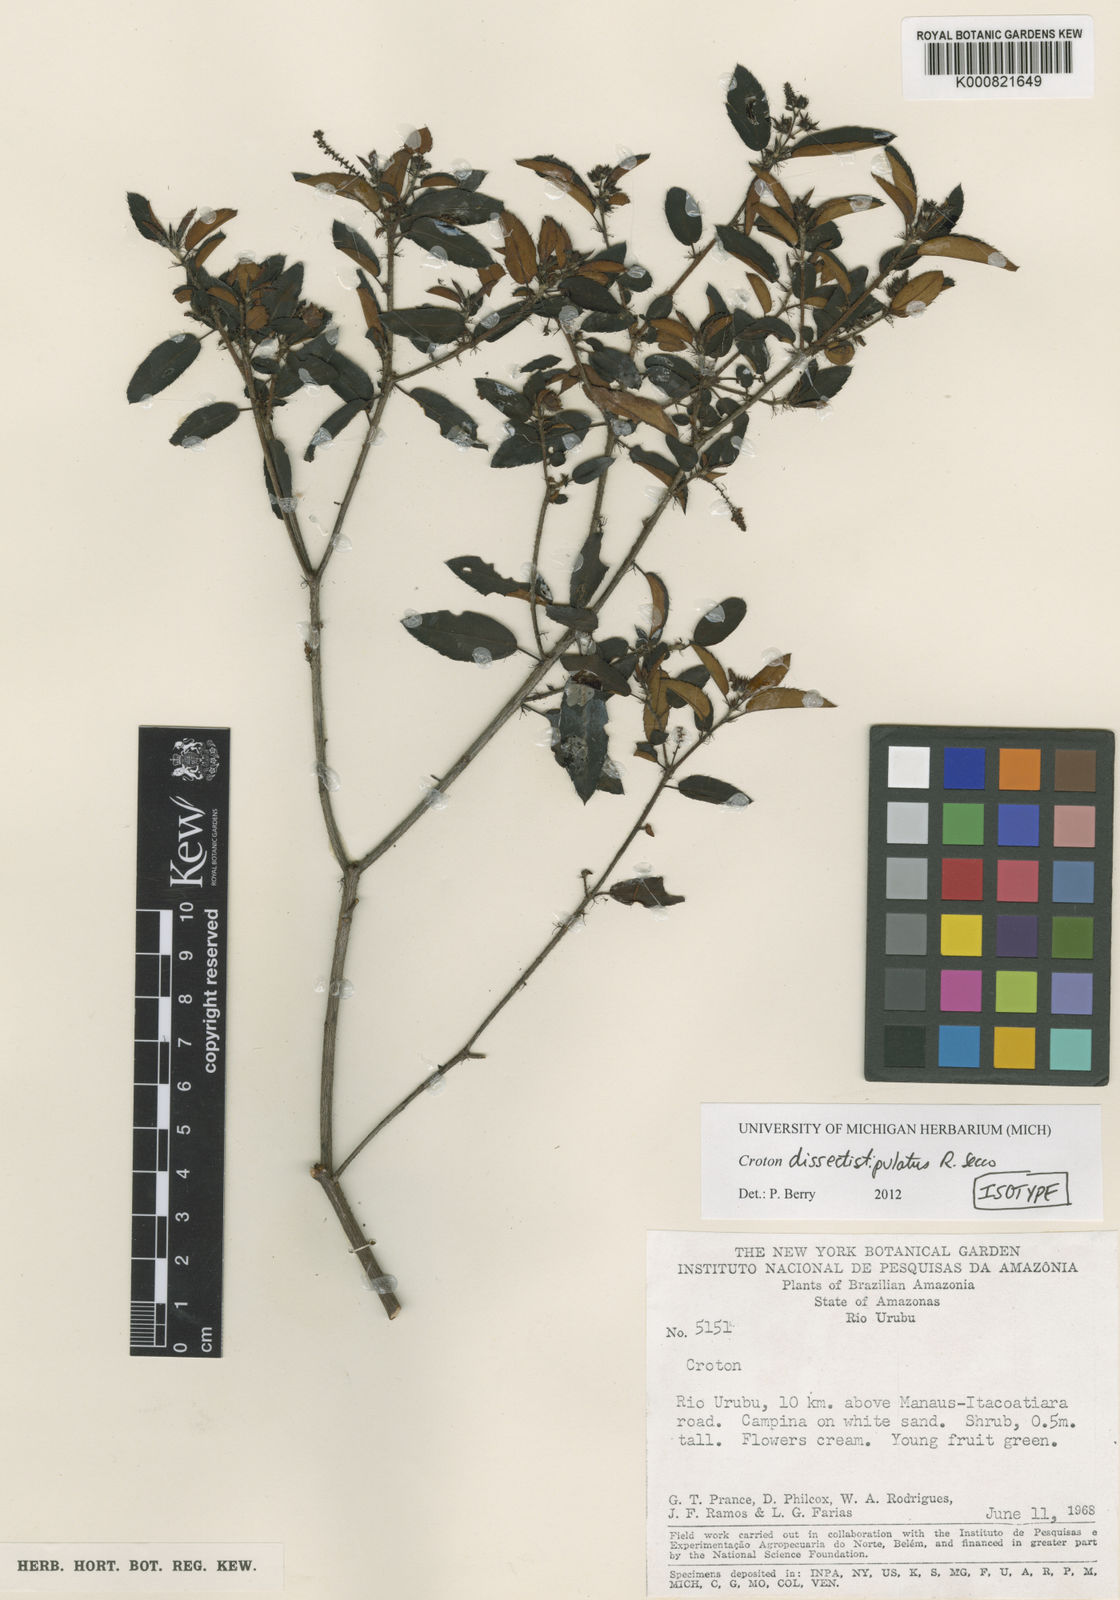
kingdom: Plantae
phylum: Tracheophyta
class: Magnoliopsida
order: Malpighiales
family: Euphorbiaceae
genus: Croton
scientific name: Croton dissectistipulatus
